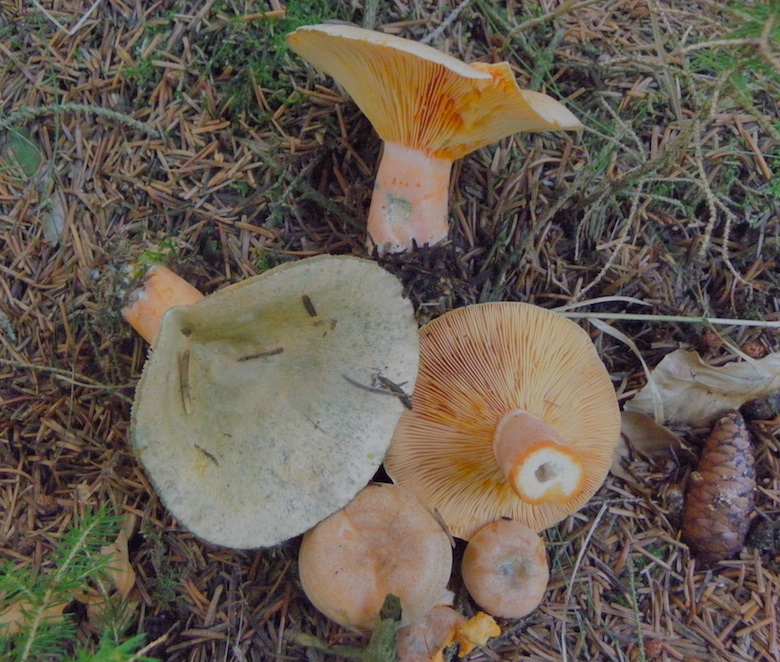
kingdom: Fungi
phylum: Basidiomycota
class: Agaricomycetes
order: Russulales
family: Russulaceae
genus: Lactarius
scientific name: Lactarius deterrimus
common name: gran-mælkehat
